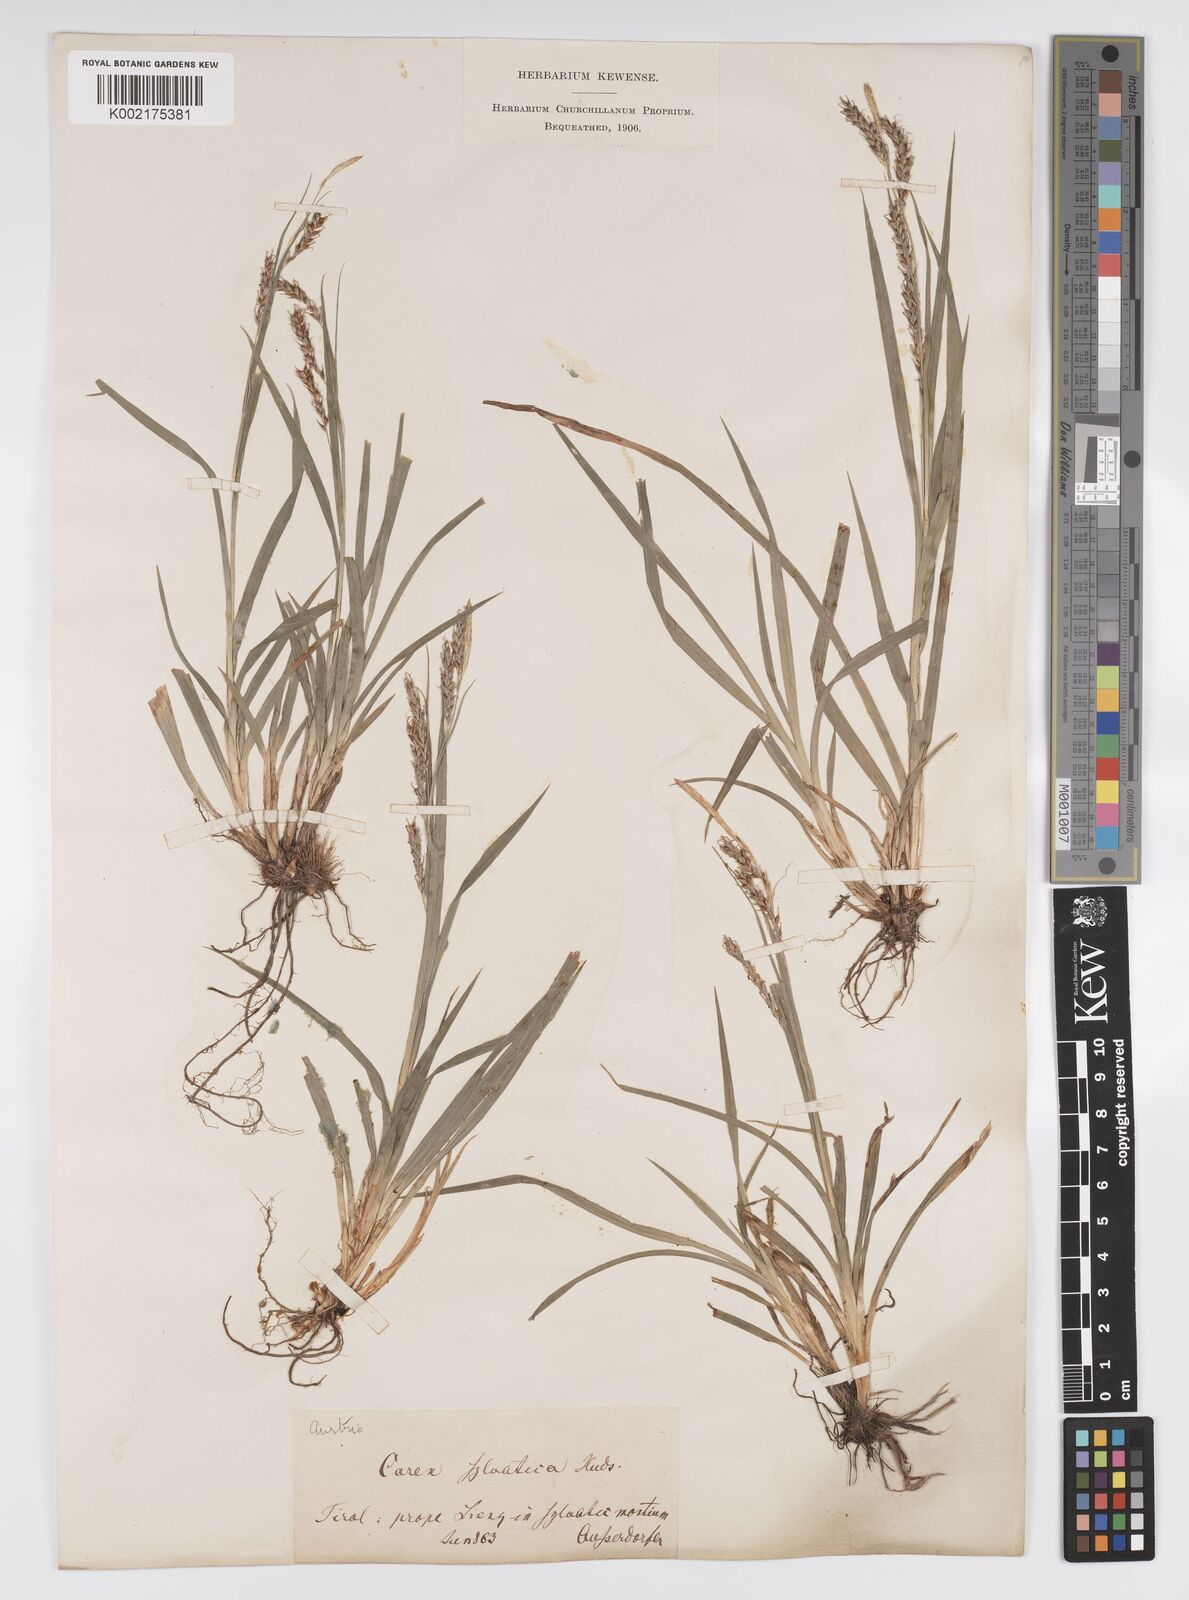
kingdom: Plantae
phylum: Tracheophyta
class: Liliopsida
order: Poales
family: Cyperaceae
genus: Carex
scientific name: Carex sylvatica
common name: Wood-sedge
